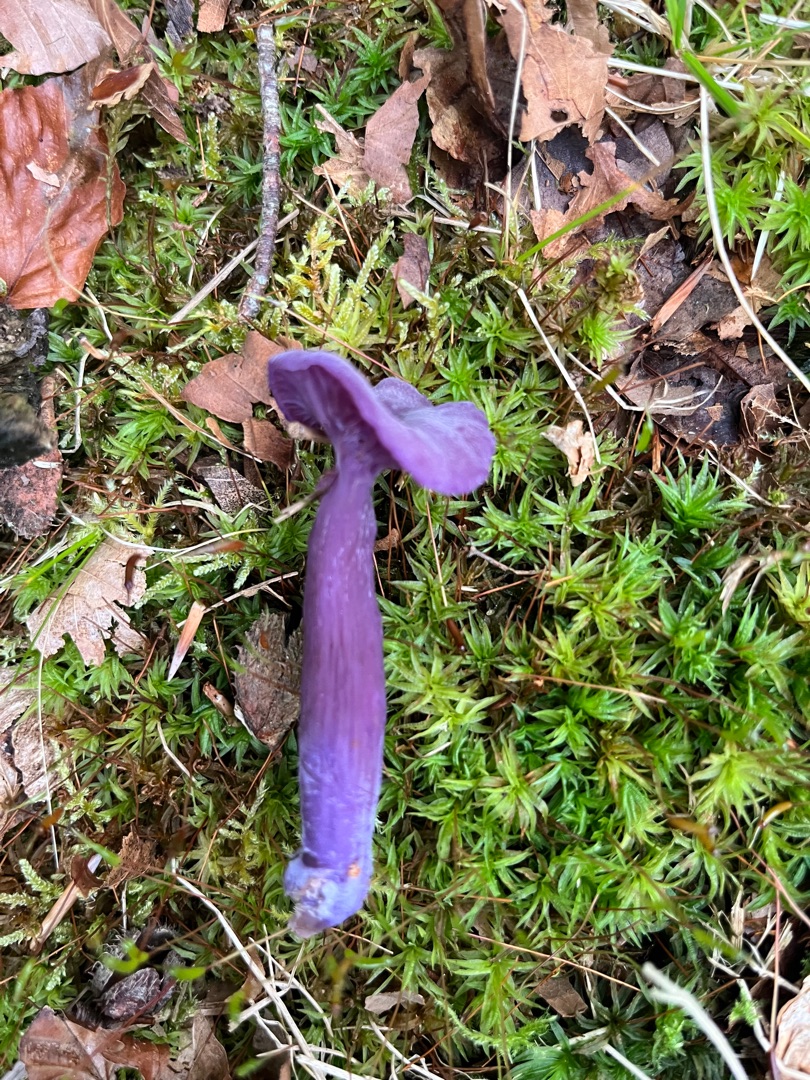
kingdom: Fungi
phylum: Basidiomycota
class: Agaricomycetes
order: Agaricales
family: Hydnangiaceae
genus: Laccaria
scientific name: Laccaria amethystina
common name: Violet ametysthat
